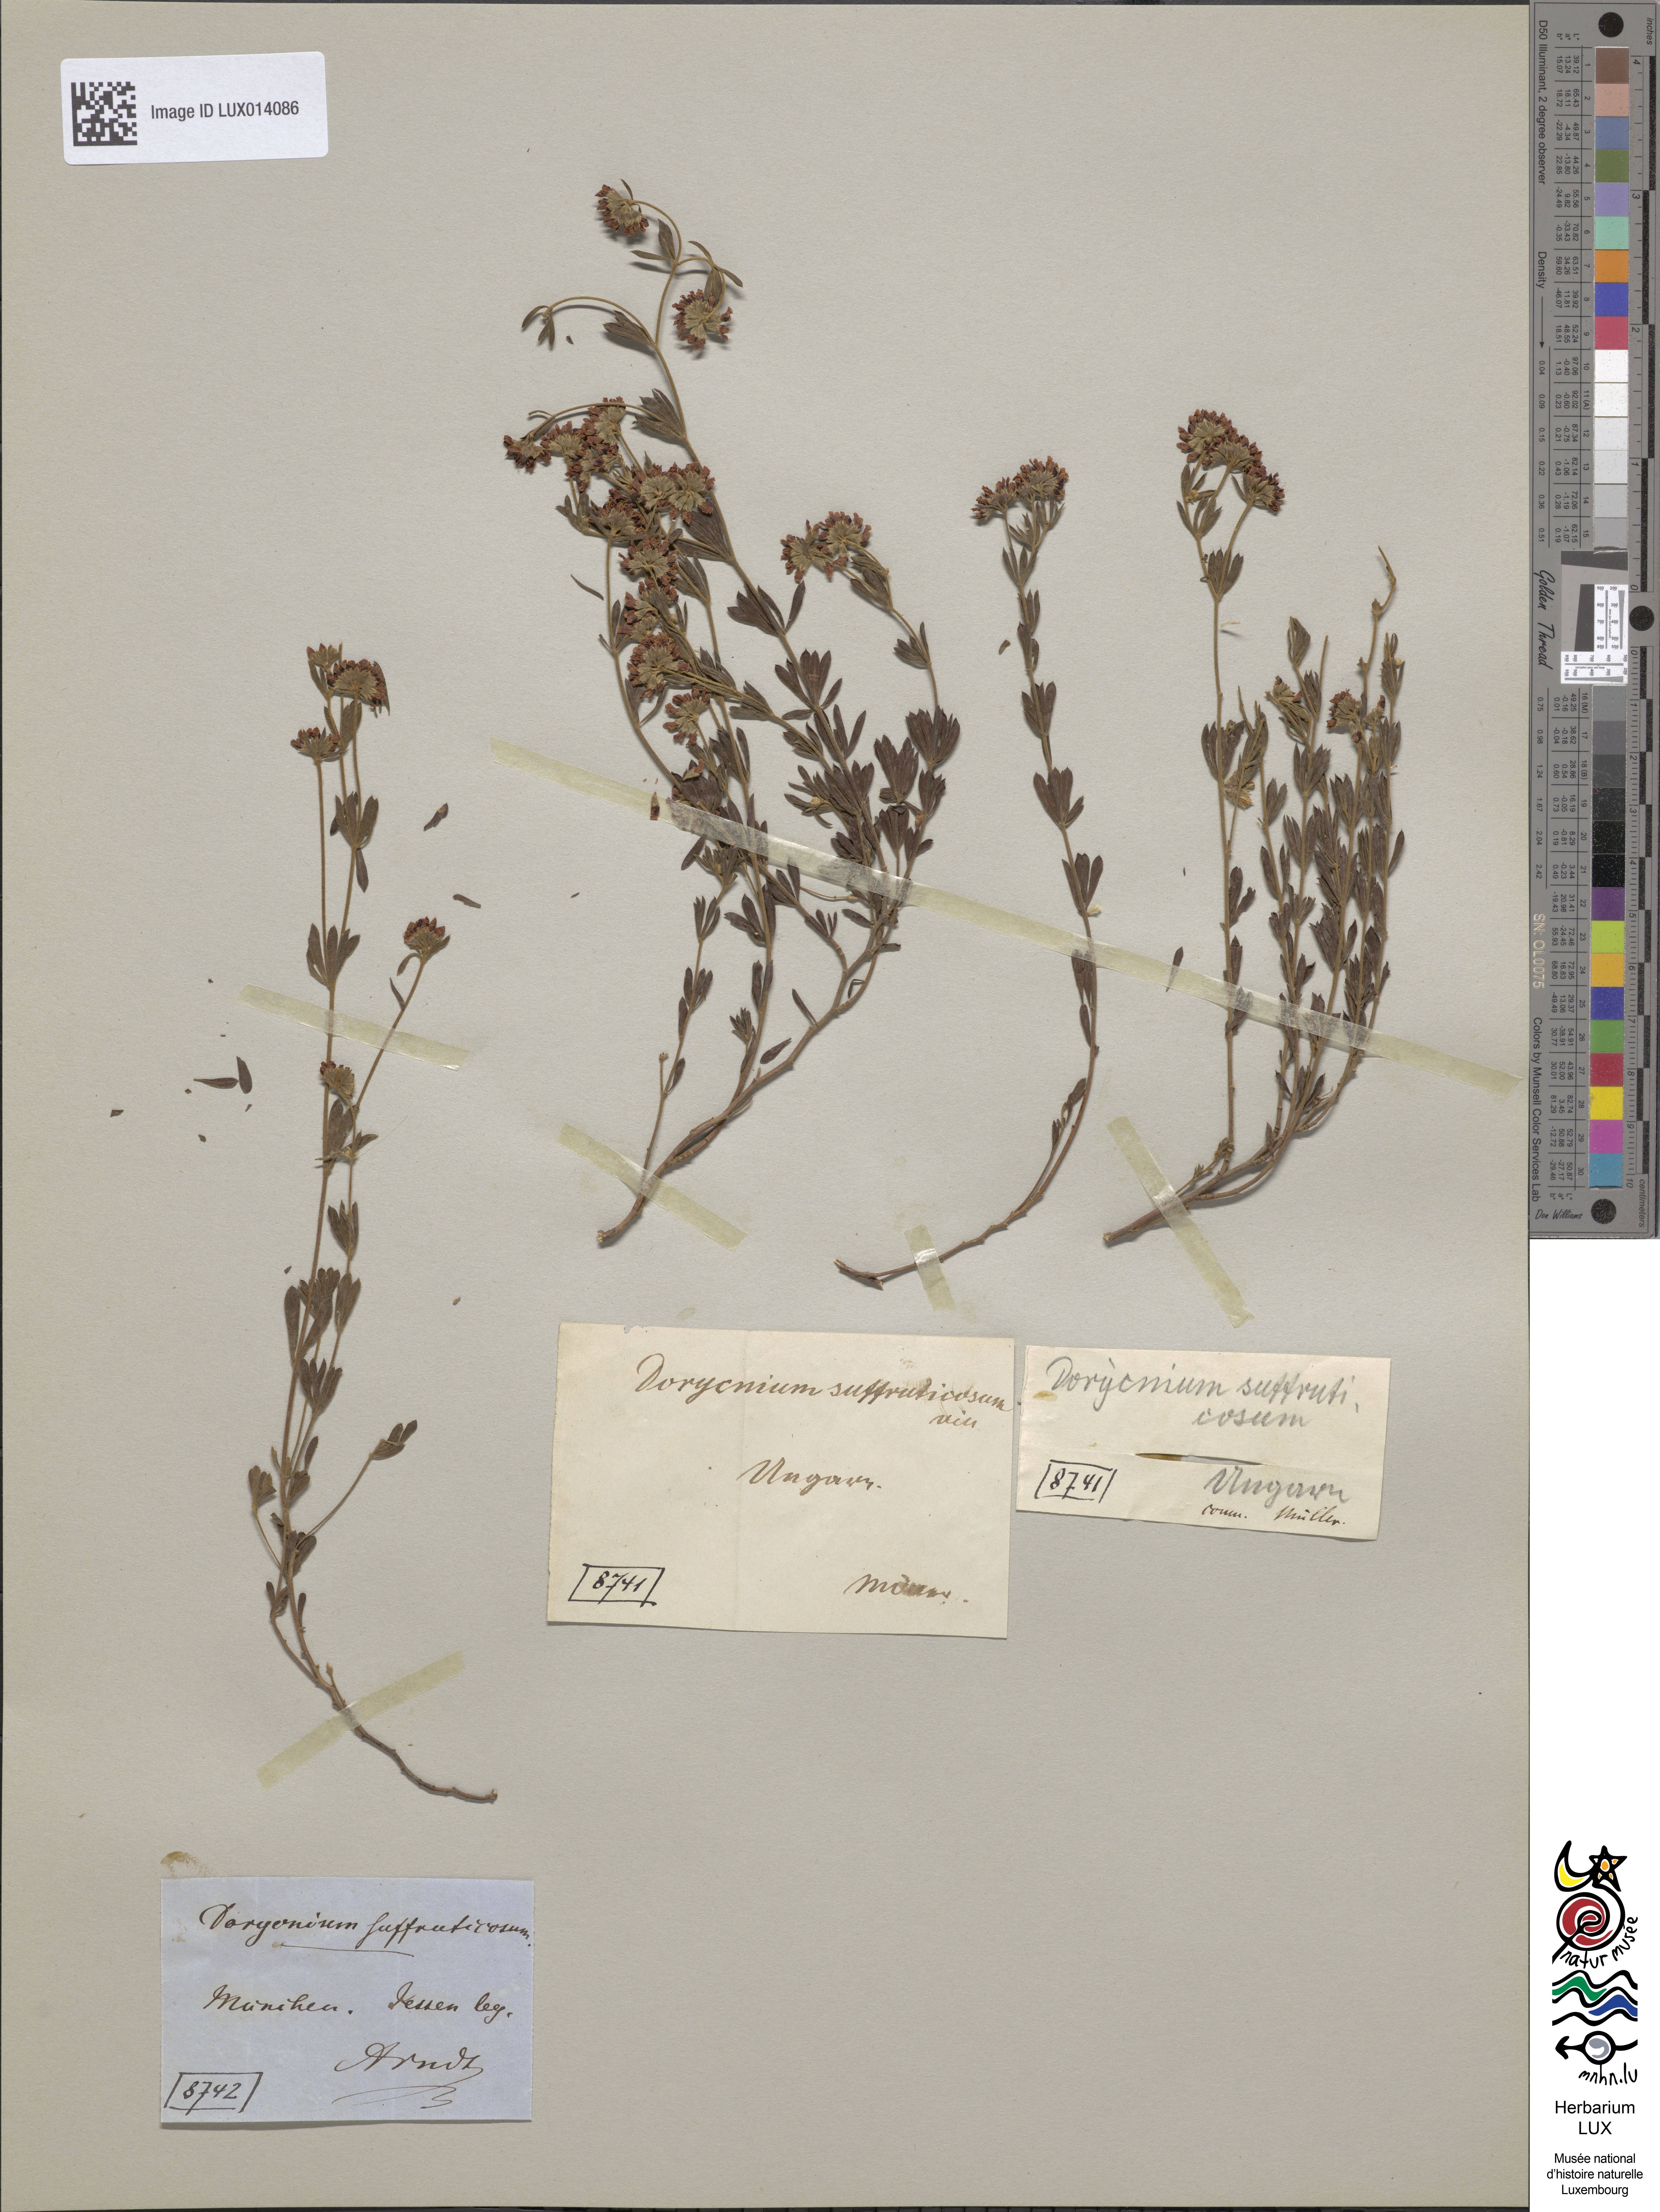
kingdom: Plantae
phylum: Tracheophyta
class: Magnoliopsida
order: Fabales
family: Fabaceae
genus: Lotus
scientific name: Lotus dorycnium
